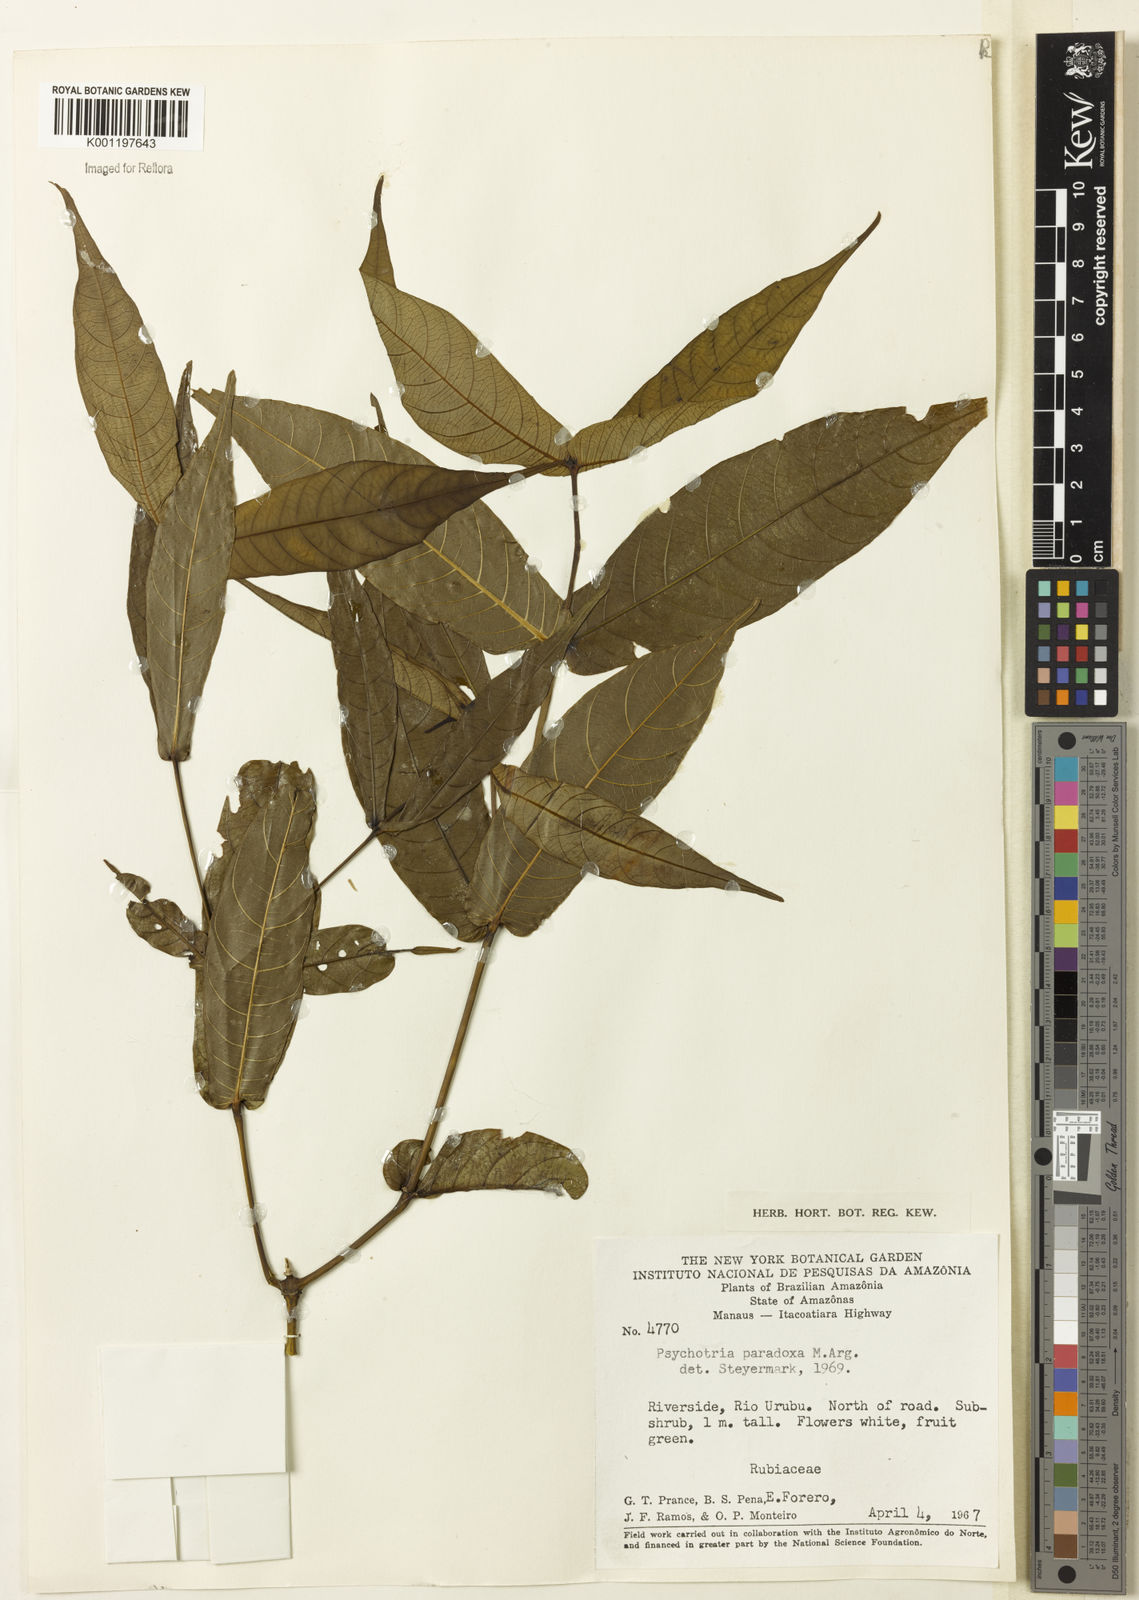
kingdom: Plantae
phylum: Tracheophyta
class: Magnoliopsida
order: Gentianales
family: Rubiaceae
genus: Psychotria
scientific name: Psychotria
